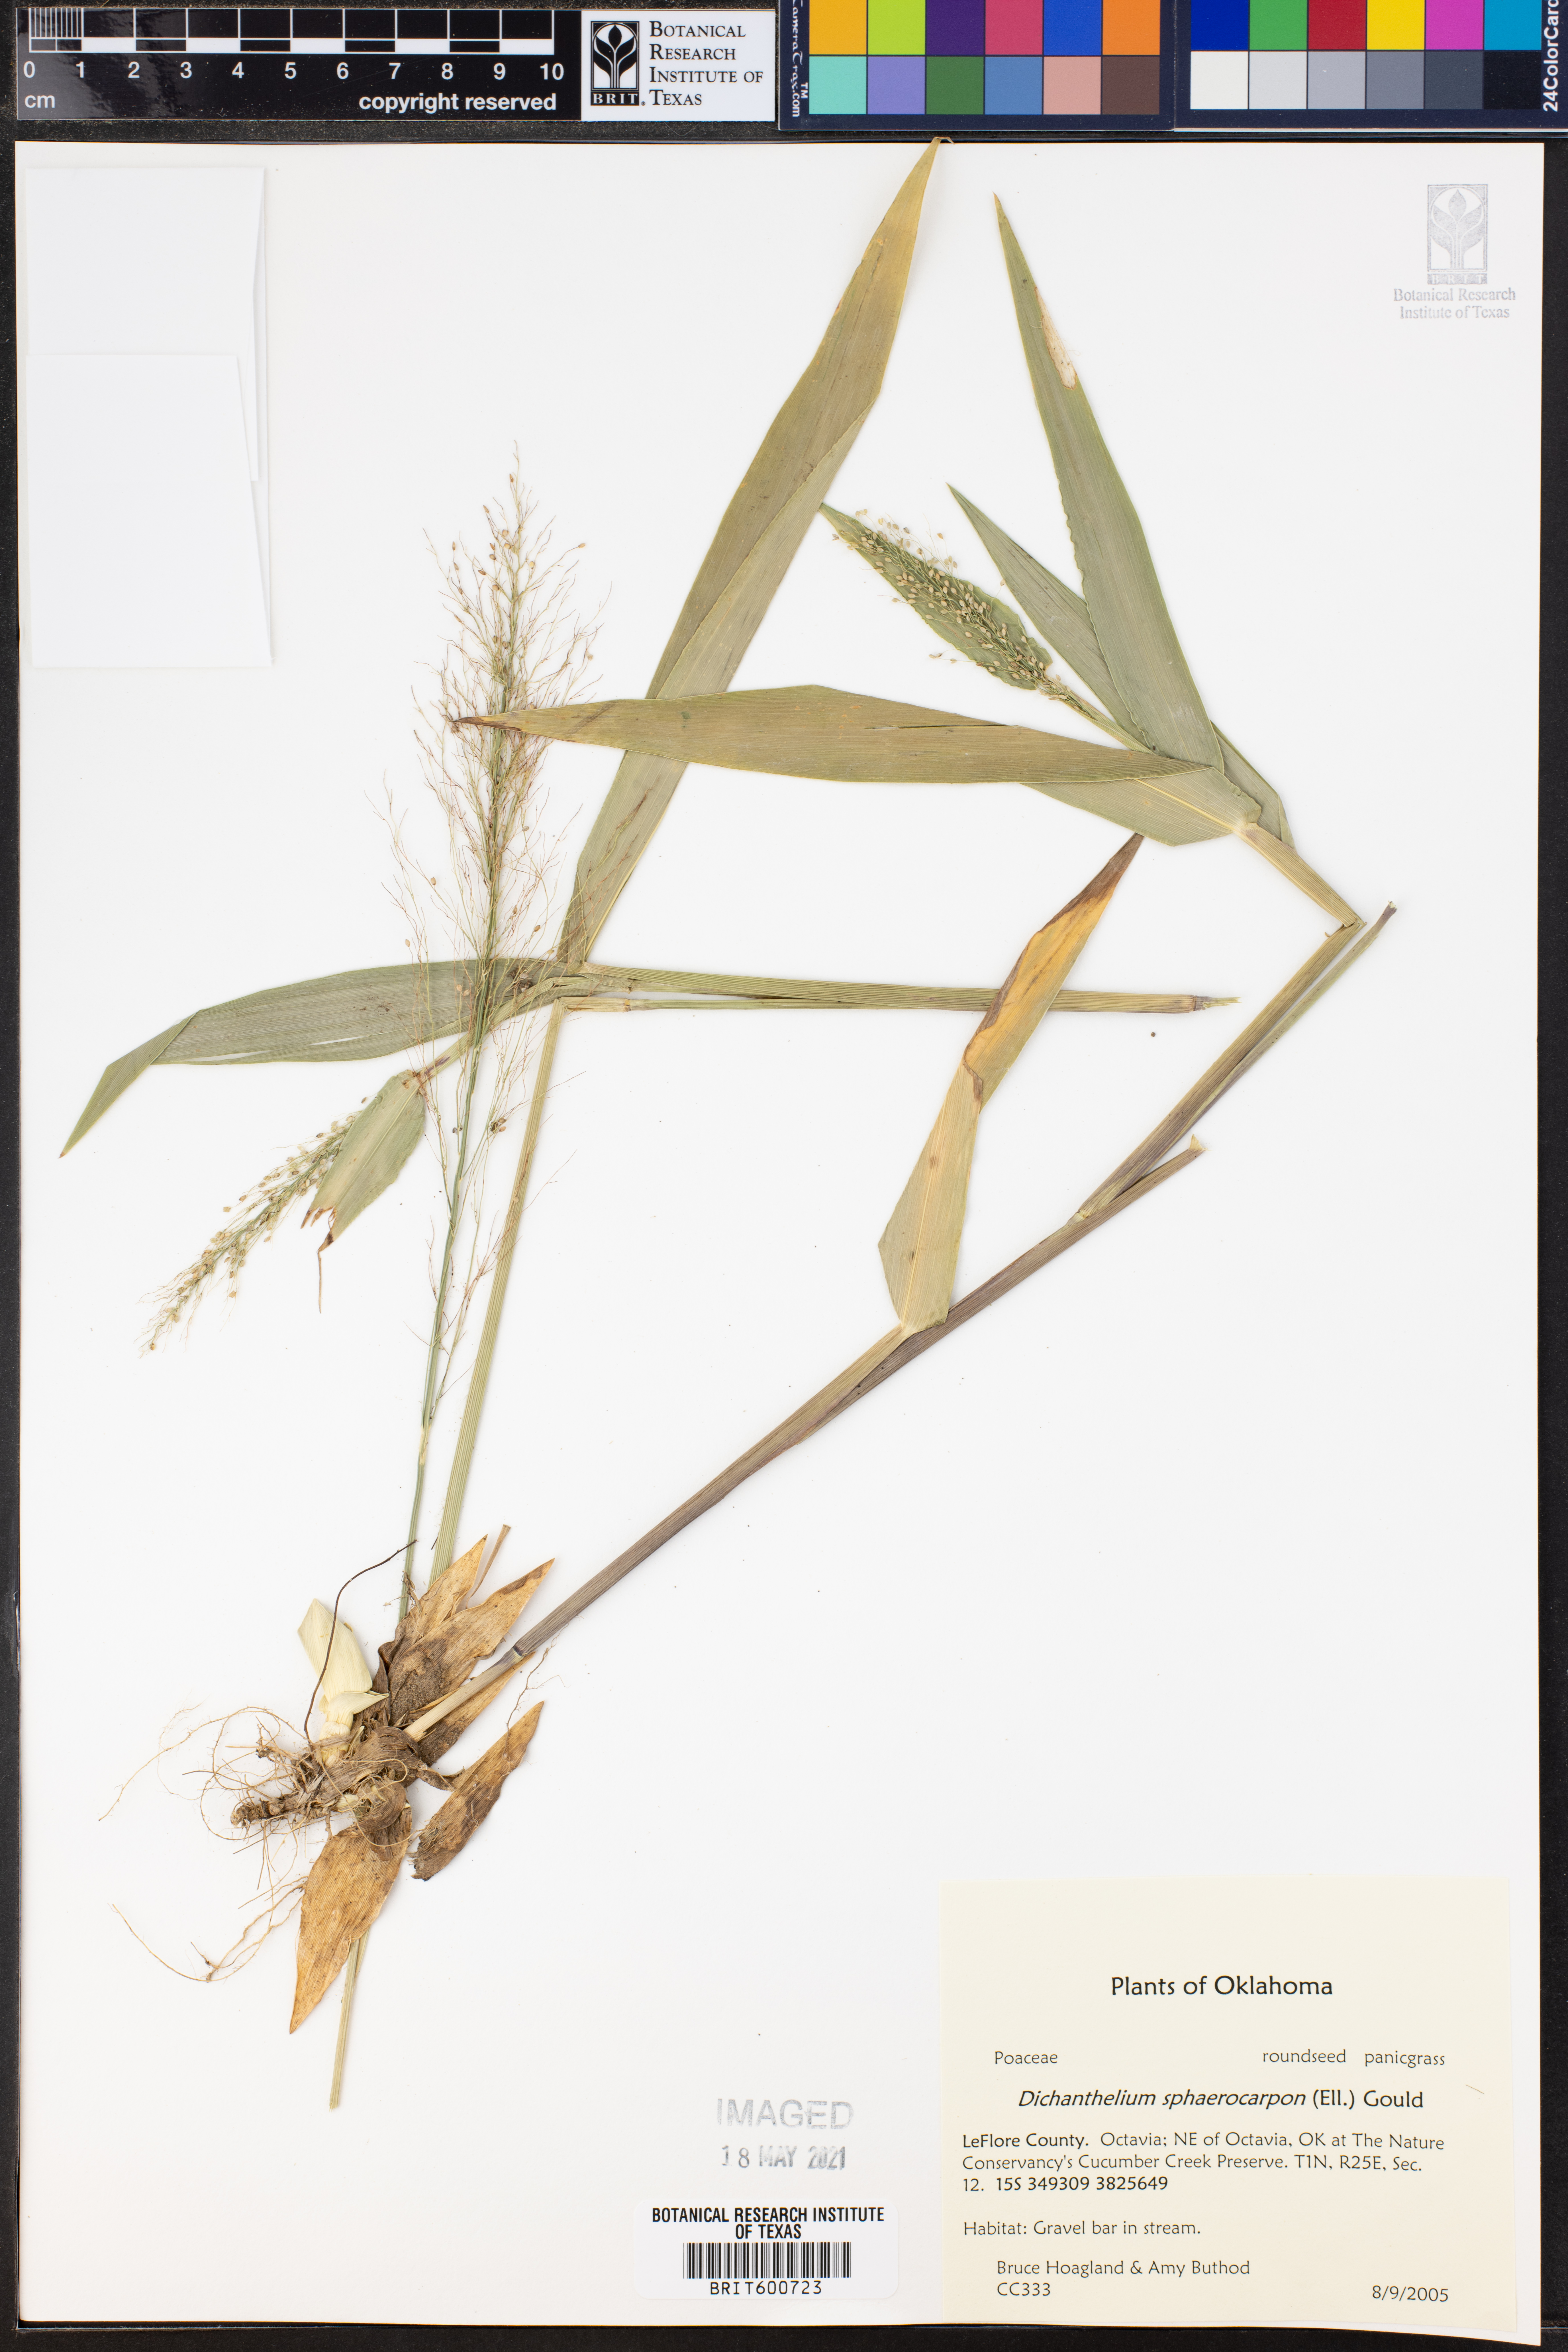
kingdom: Plantae
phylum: Tracheophyta
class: Liliopsida
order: Poales
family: Poaceae
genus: Dichanthelium
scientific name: Dichanthelium sphaerocarpon
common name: Round-fruited panicgrass
